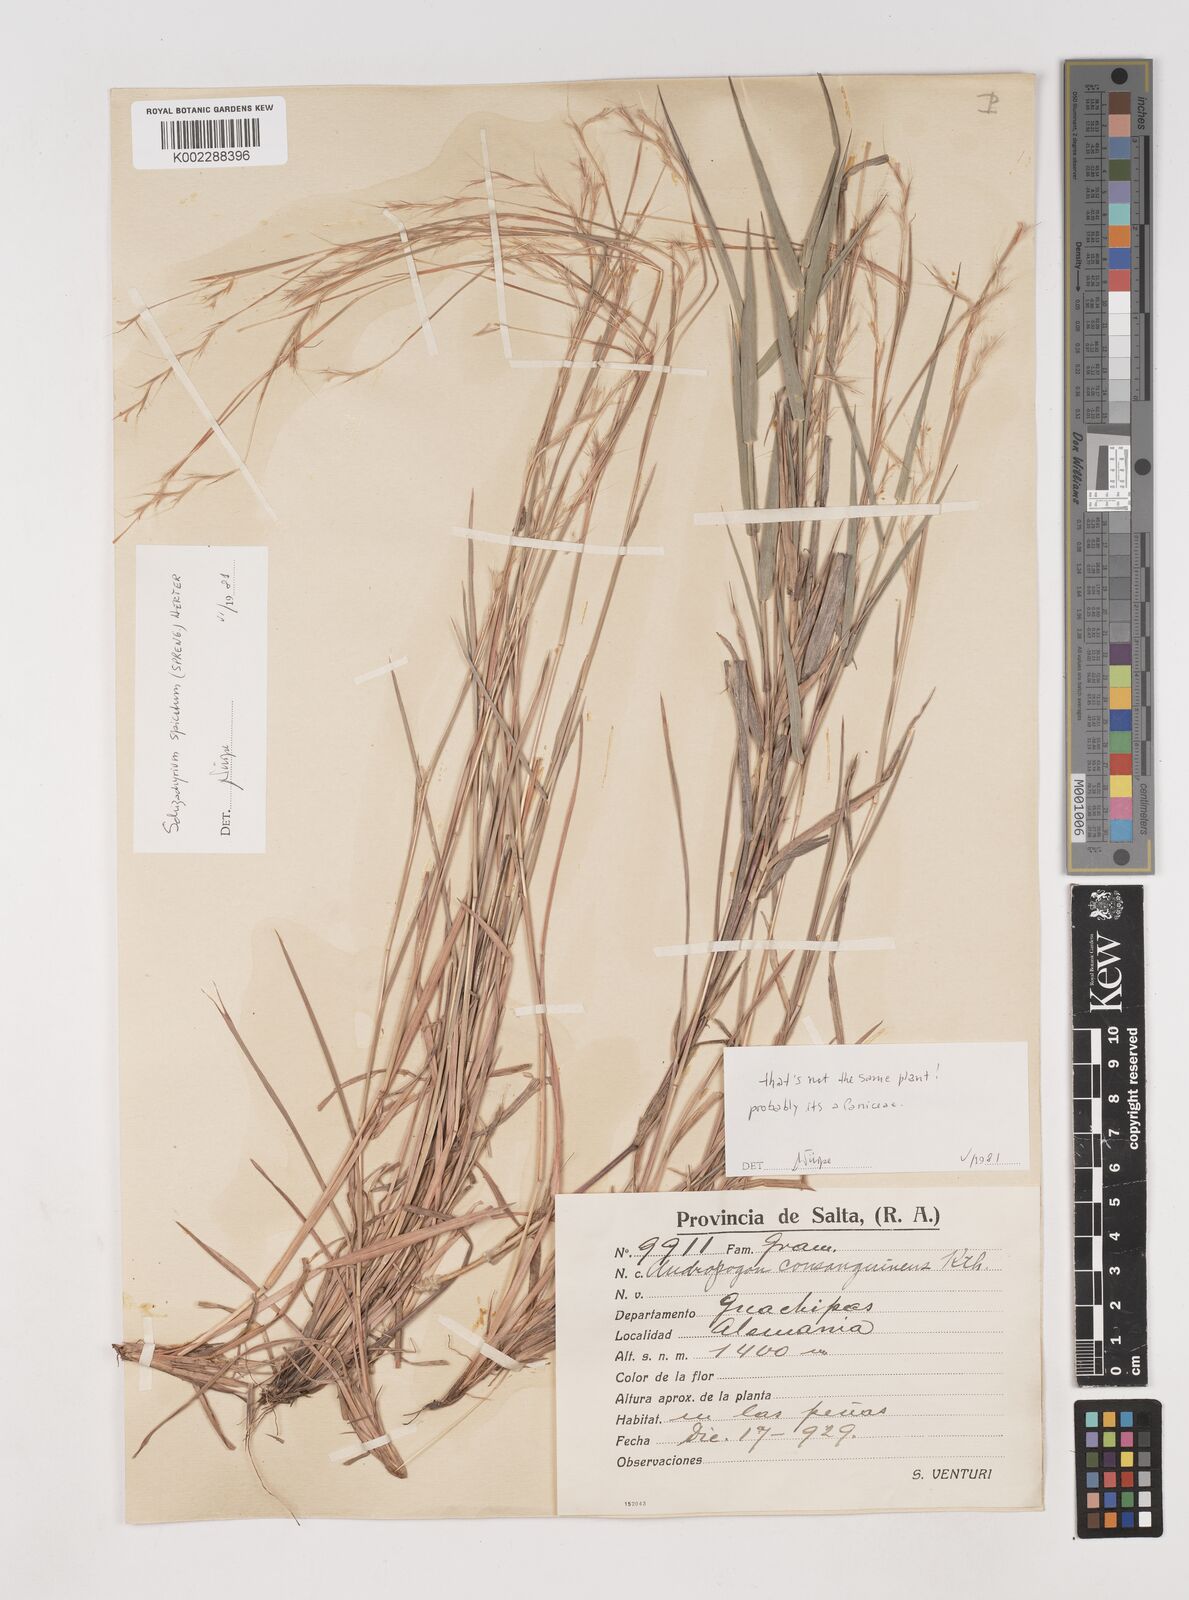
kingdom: Plantae
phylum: Tracheophyta
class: Liliopsida
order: Poales
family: Poaceae
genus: Schizachyrium
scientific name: Schizachyrium spicatum
